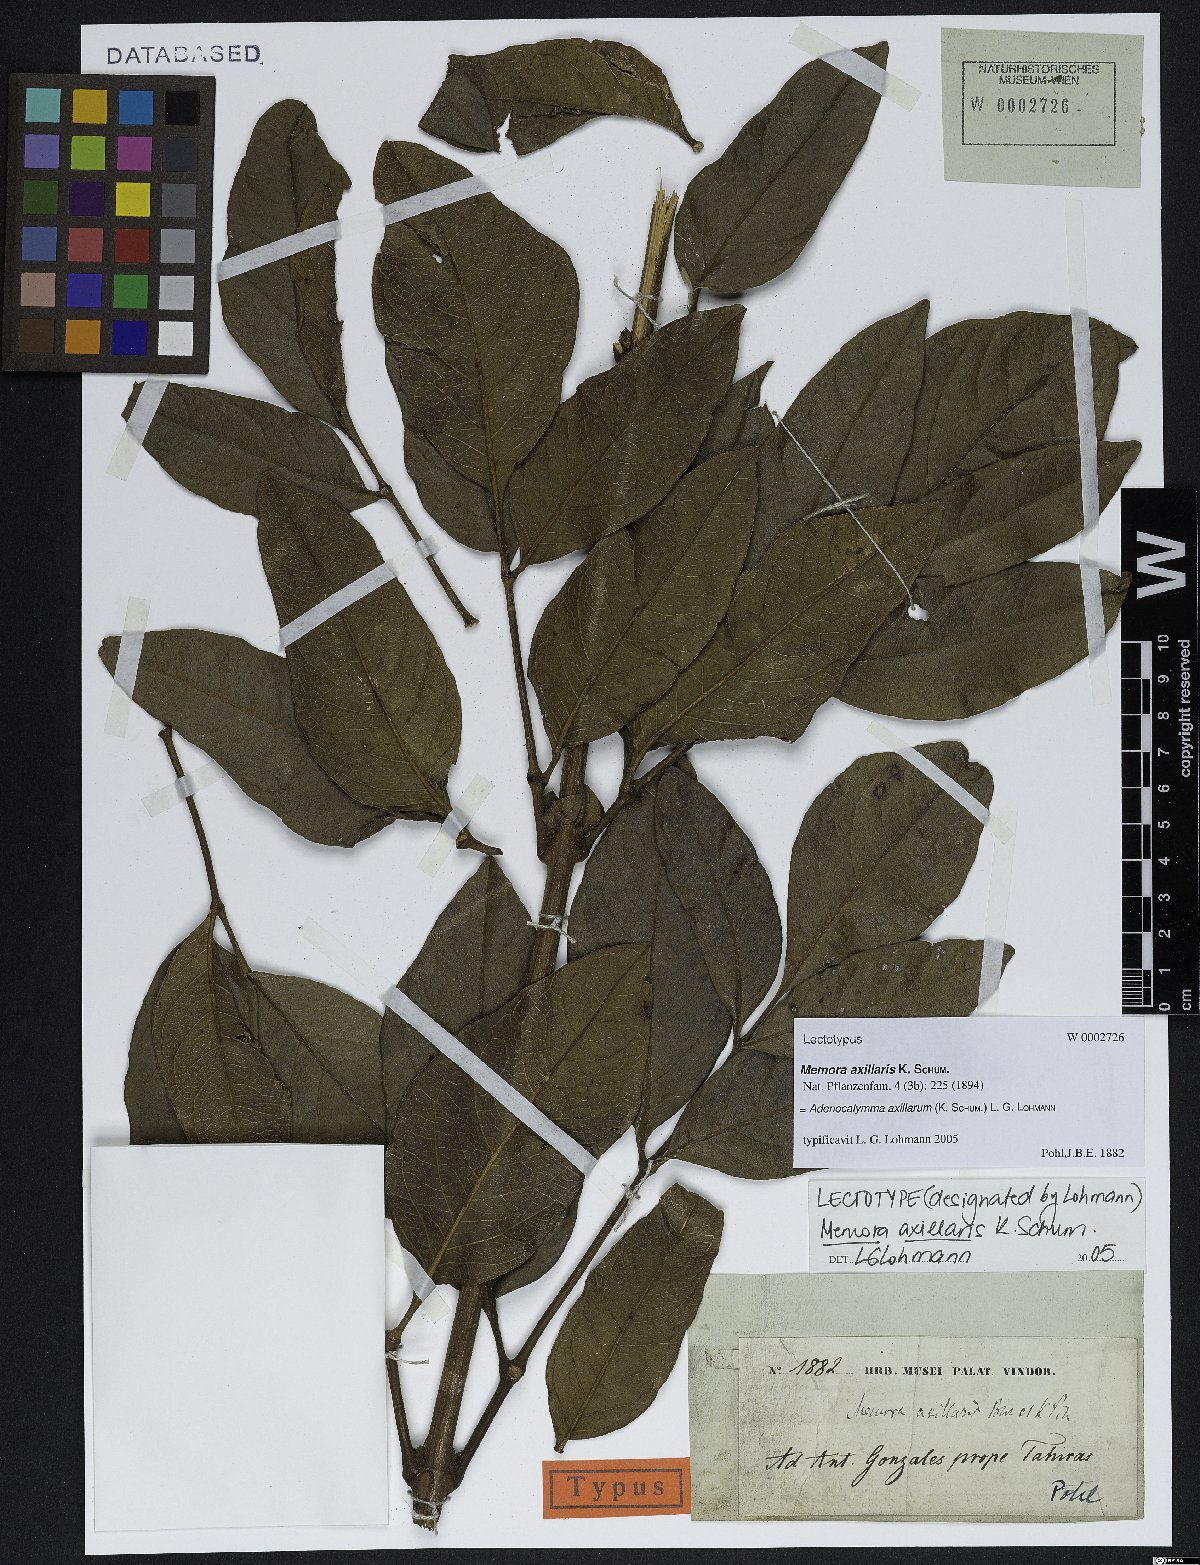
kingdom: Plantae
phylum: Tracheophyta
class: Magnoliopsida
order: Lamiales
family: Bignoniaceae
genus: Adenocalymma
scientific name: Adenocalymma axillare
